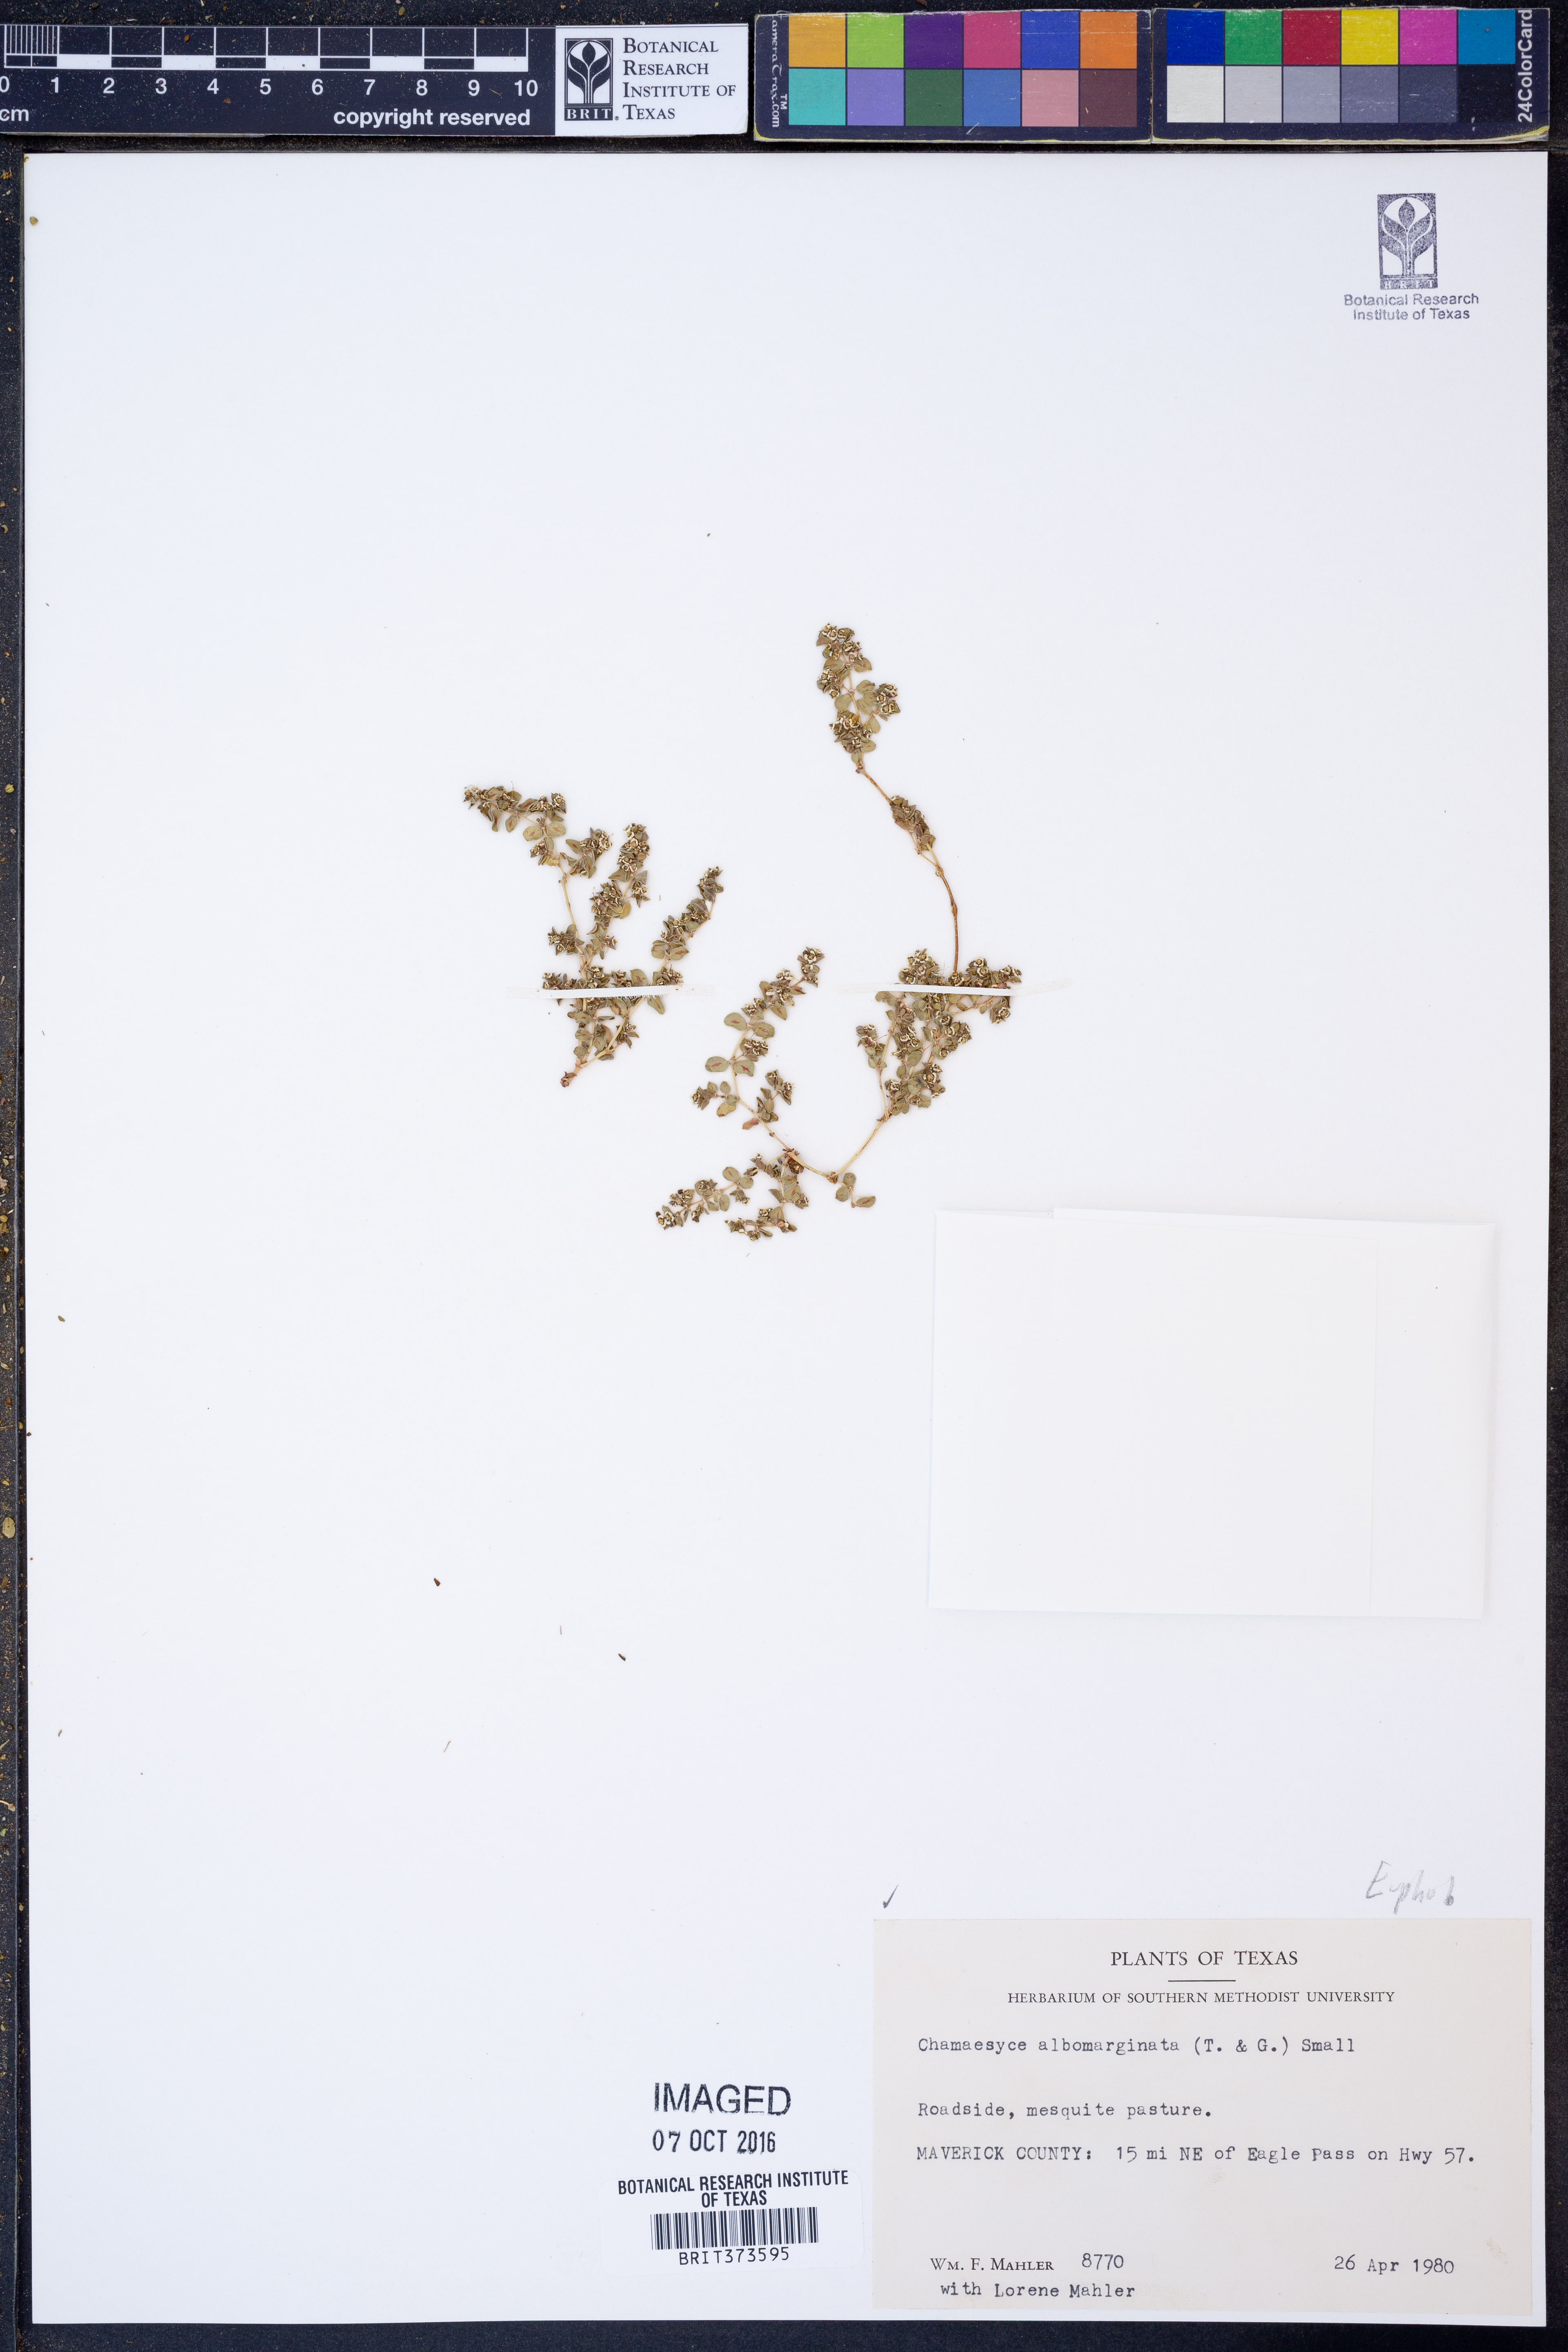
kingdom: Plantae
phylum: Tracheophyta
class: Magnoliopsida
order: Malpighiales
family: Euphorbiaceae
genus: Euphorbia
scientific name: Euphorbia albomarginata
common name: Whitemargin sandmat
